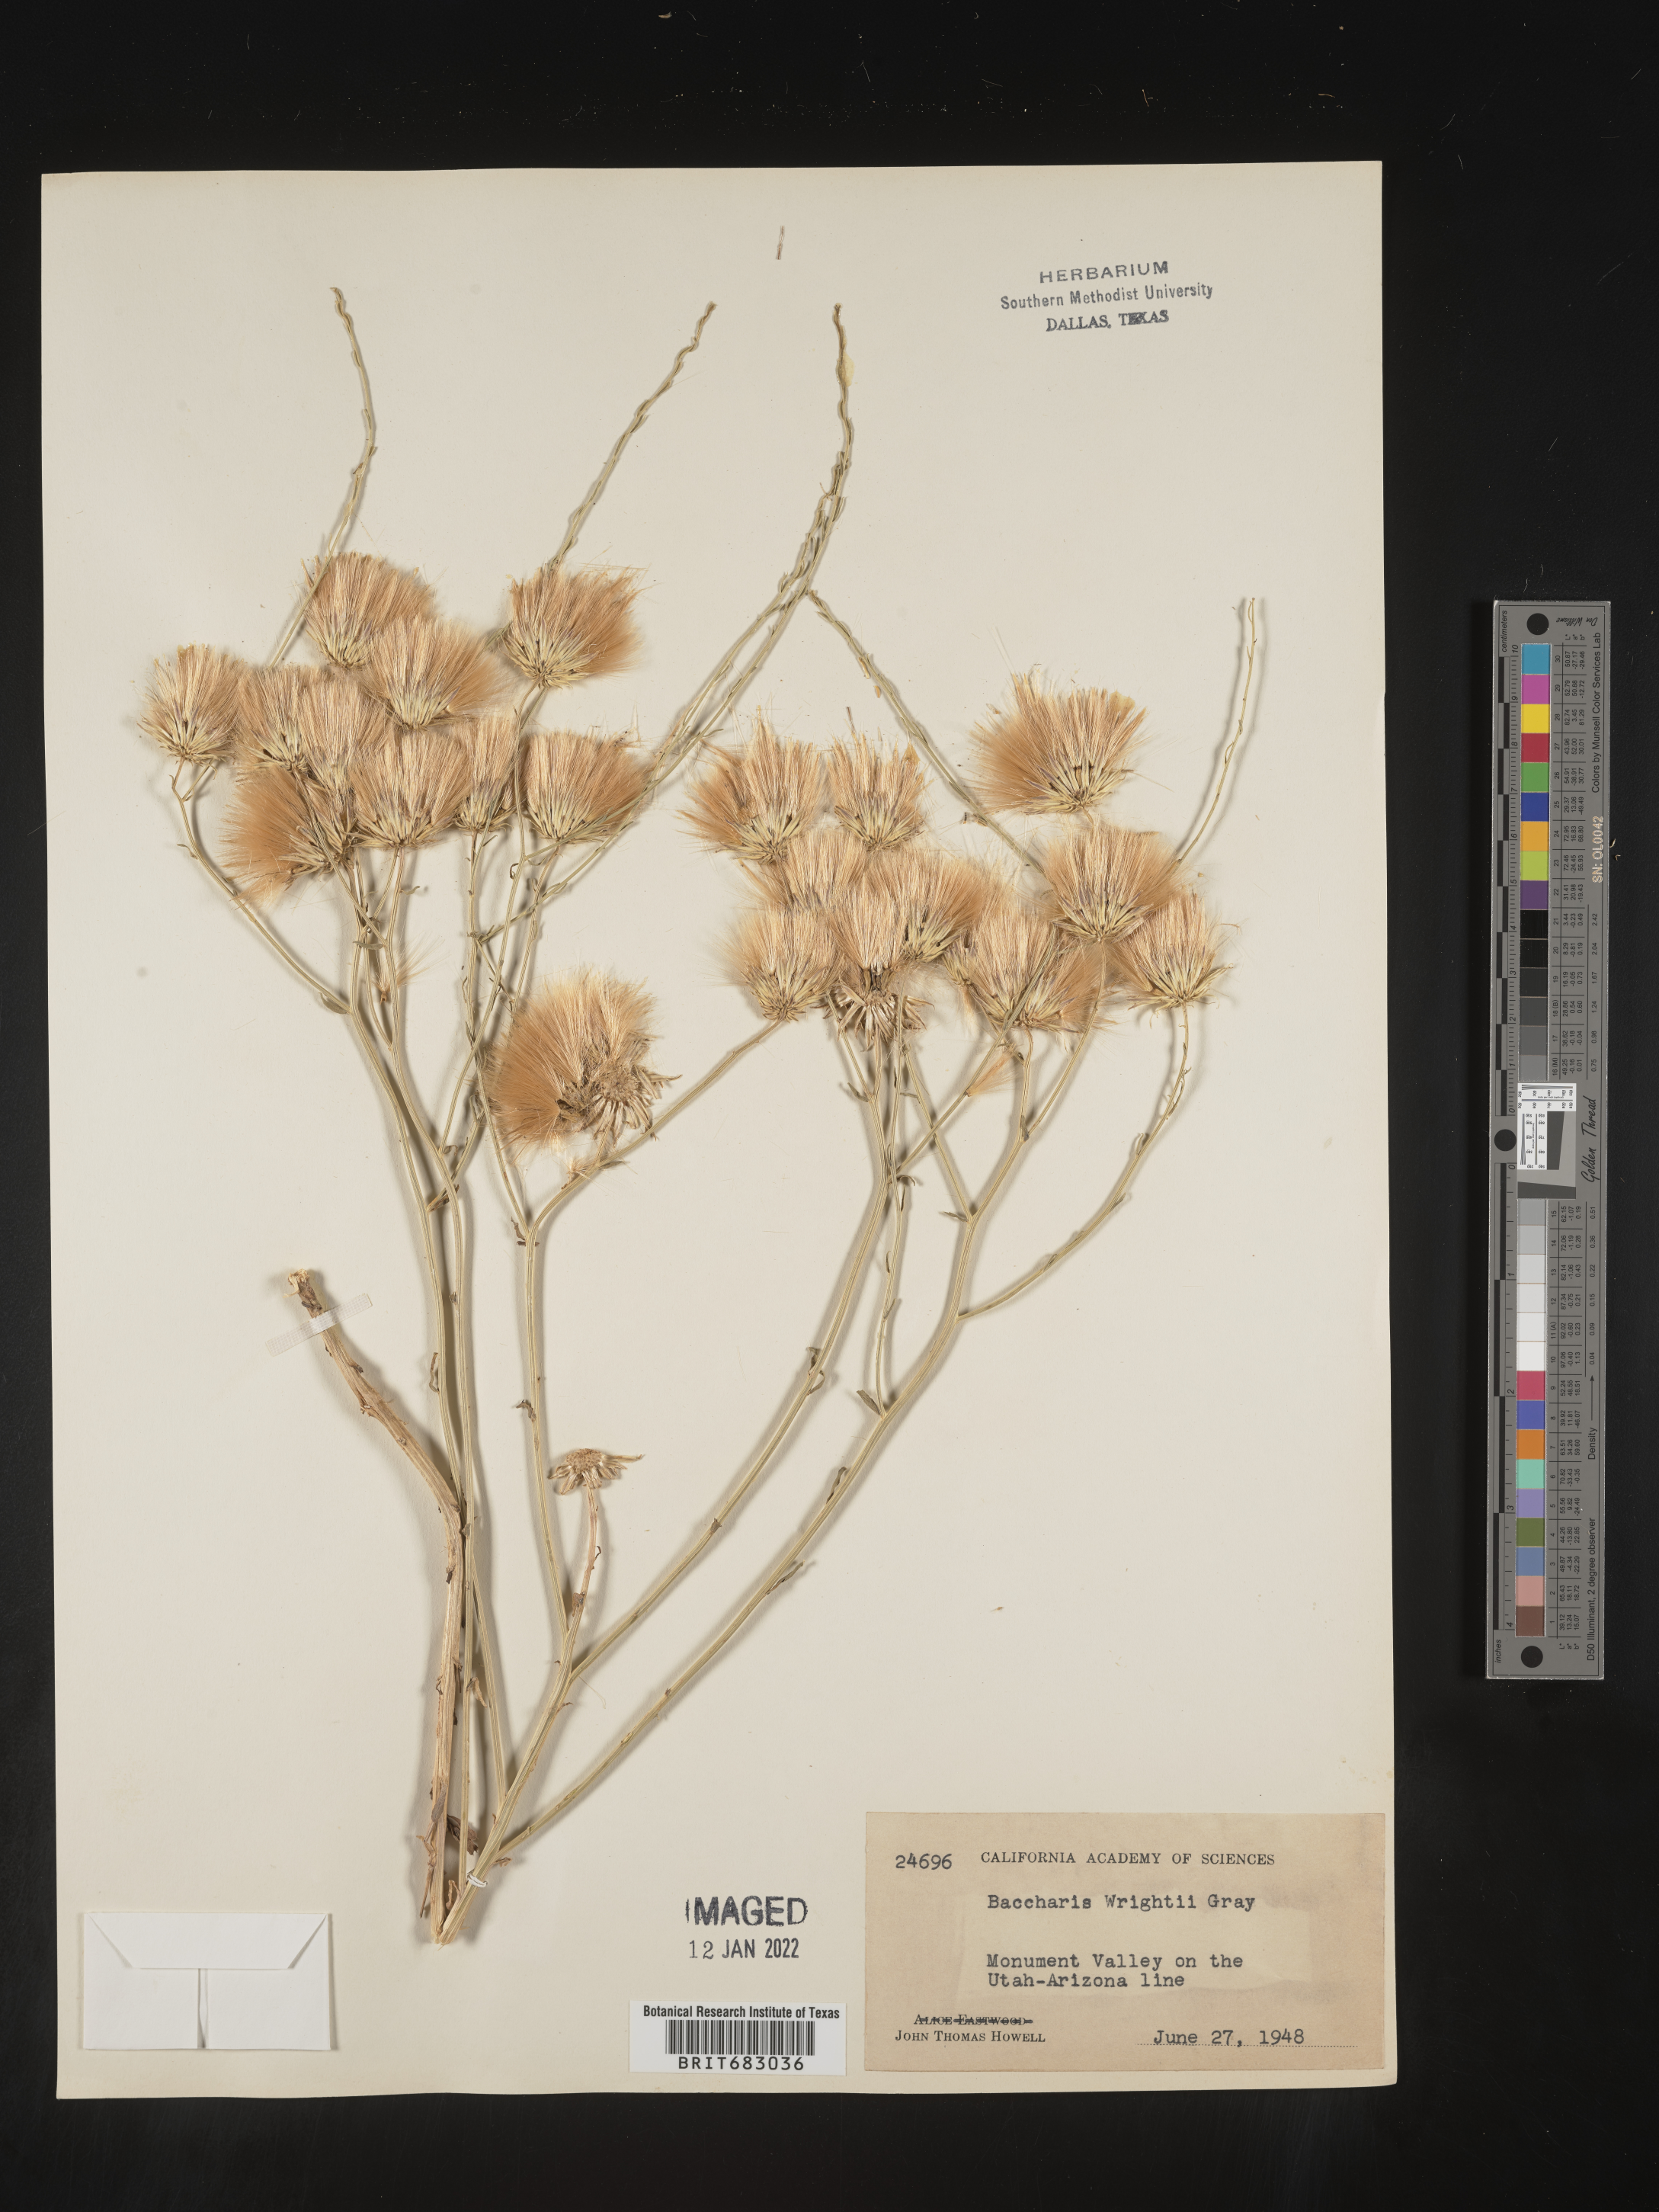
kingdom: Plantae
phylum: Tracheophyta
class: Magnoliopsida
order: Asterales
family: Asteraceae
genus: Baccharis
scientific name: Baccharis wrightii
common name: Wright's baccharis
